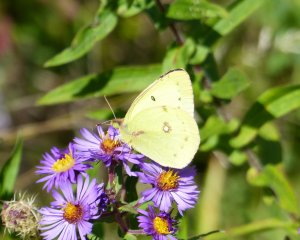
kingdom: Animalia
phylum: Arthropoda
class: Insecta
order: Lepidoptera
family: Pieridae
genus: Colias
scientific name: Colias philodice
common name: Clouded Sulphur
